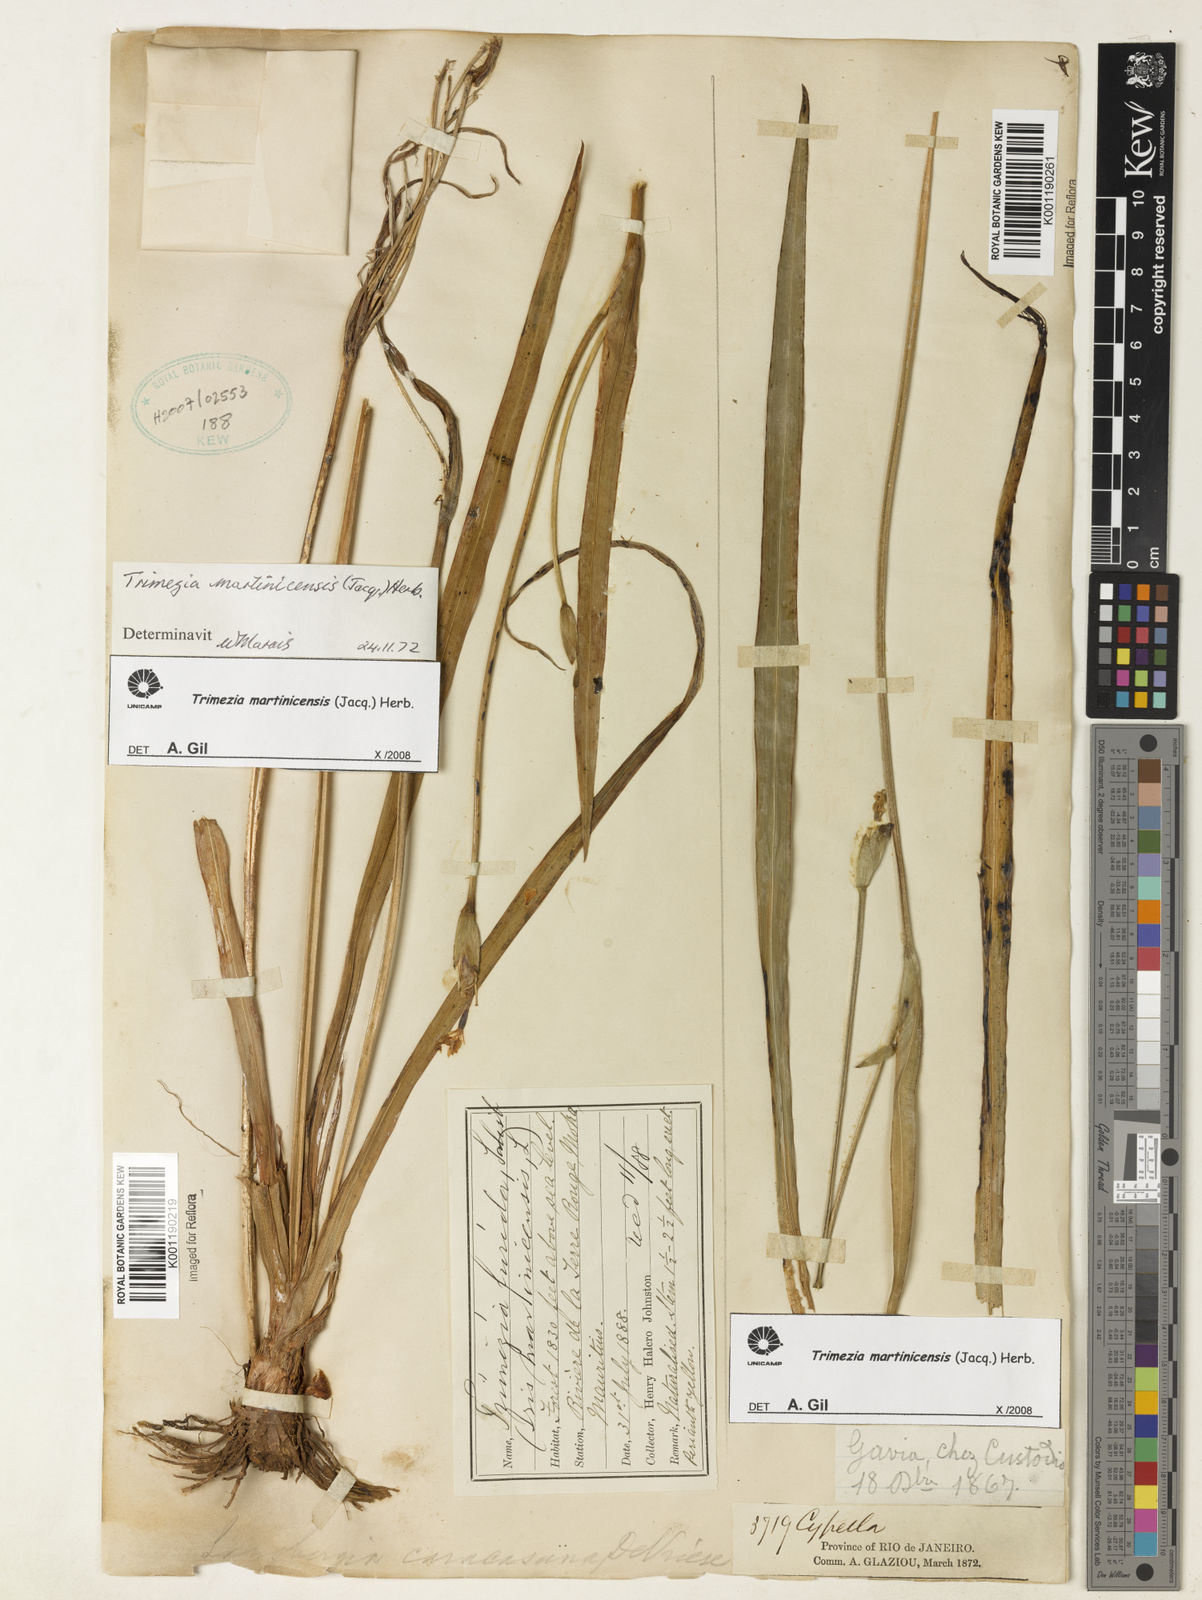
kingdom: Plantae
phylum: Tracheophyta
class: Liliopsida
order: Asparagales
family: Iridaceae
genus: Trimezia
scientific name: Trimezia martinicensis
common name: Martinique trimezia
